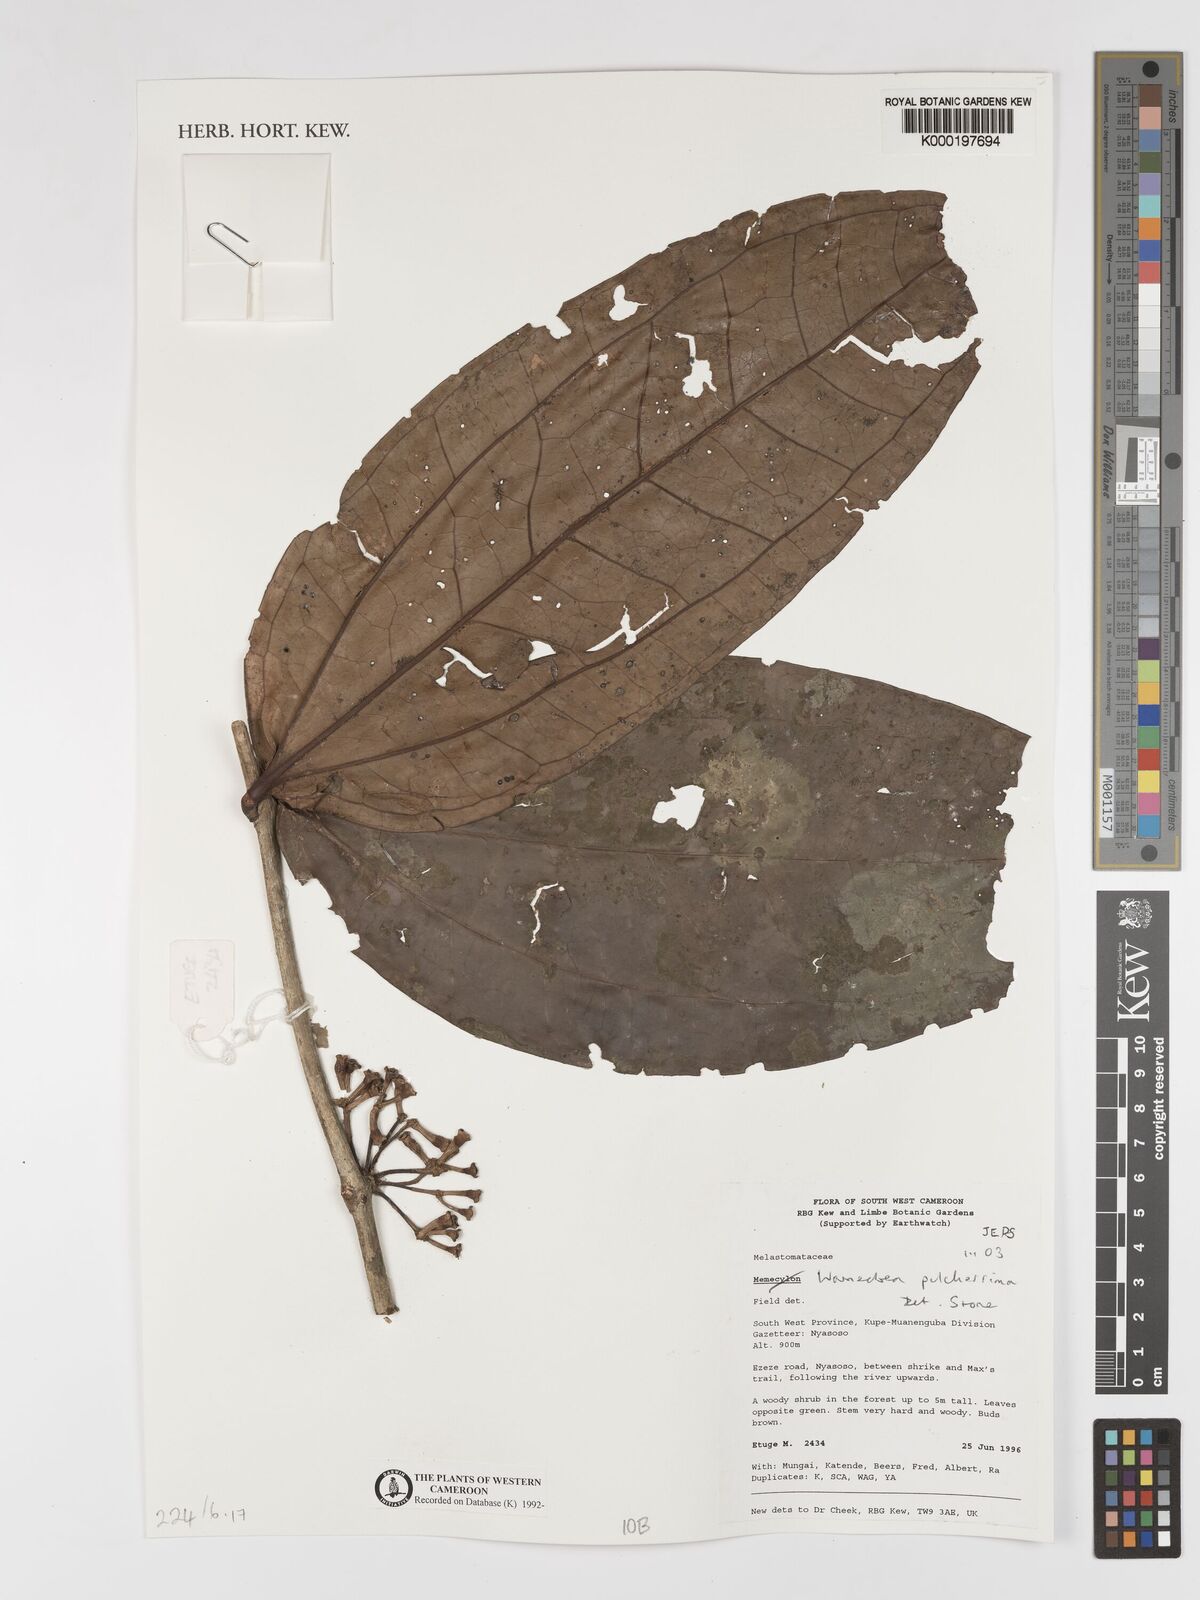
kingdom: Plantae
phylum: Tracheophyta
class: Magnoliopsida
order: Myrtales
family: Melastomataceae
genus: Warneckea
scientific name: Warneckea
